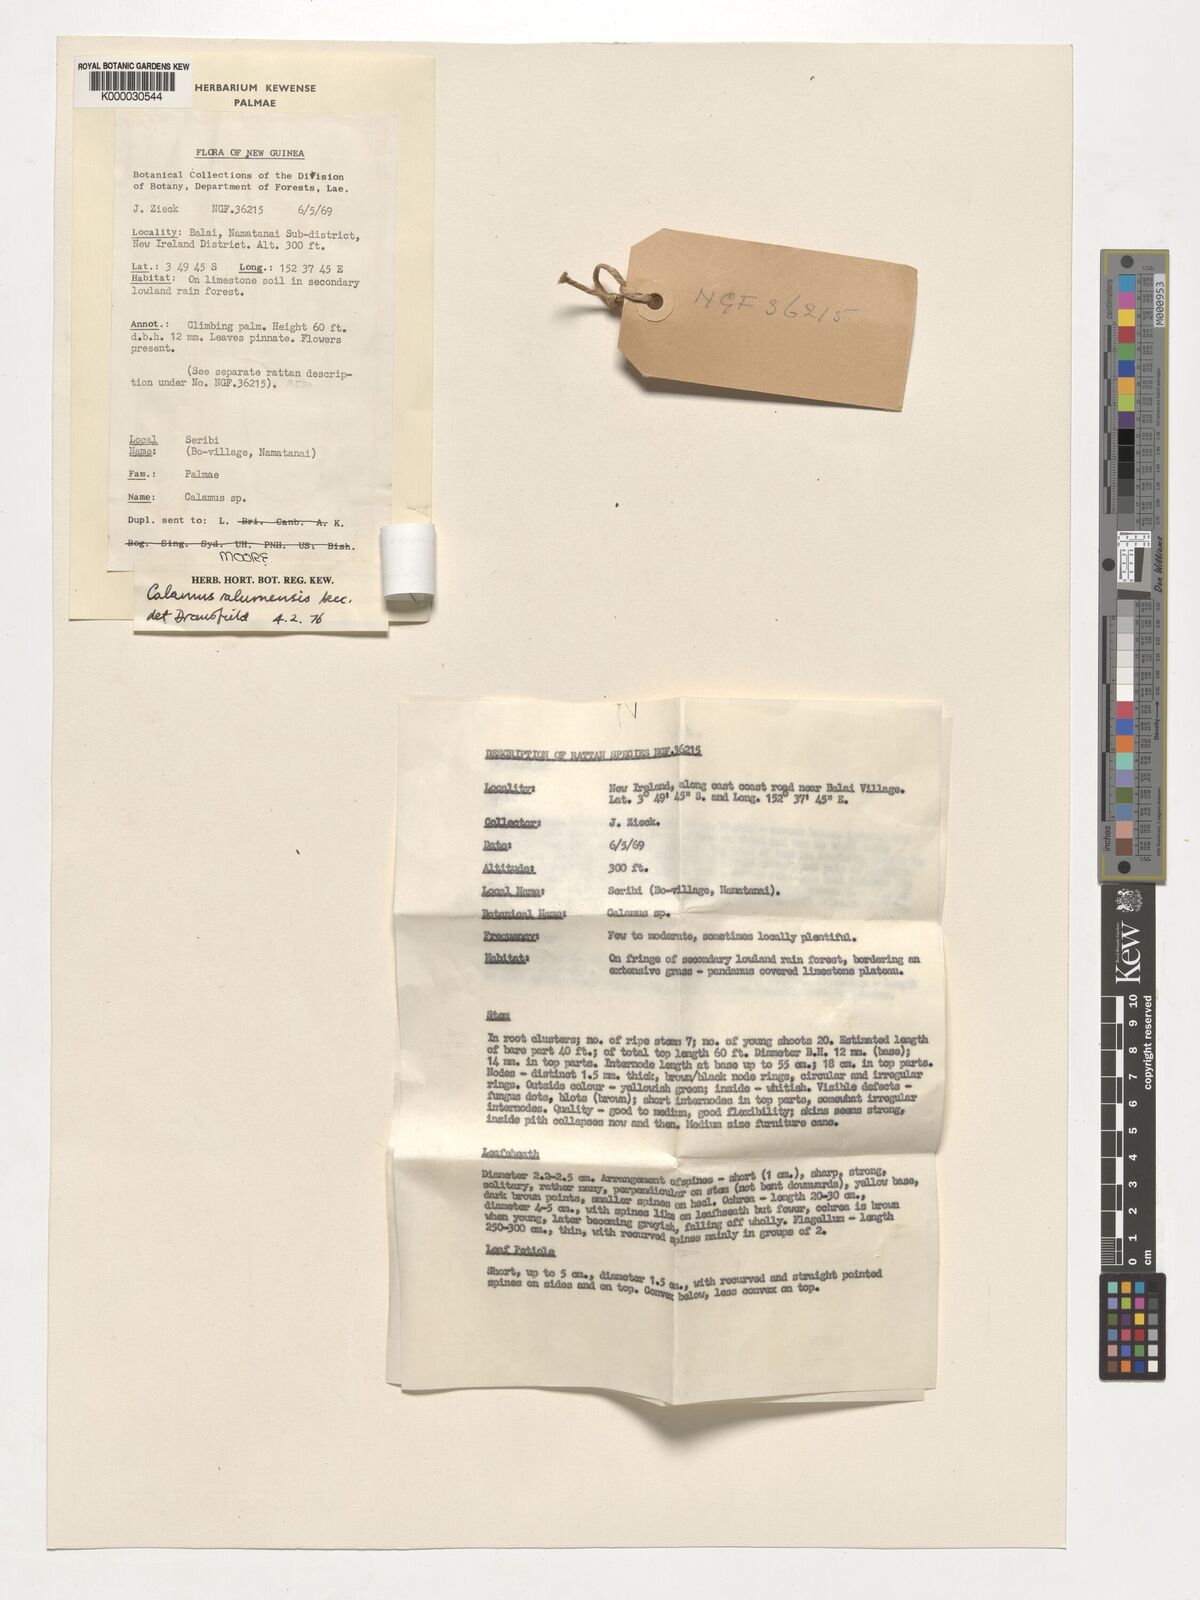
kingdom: Plantae
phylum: Tracheophyta
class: Liliopsida
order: Arecales
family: Arecaceae
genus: Calamus
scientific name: Calamus longipinna
